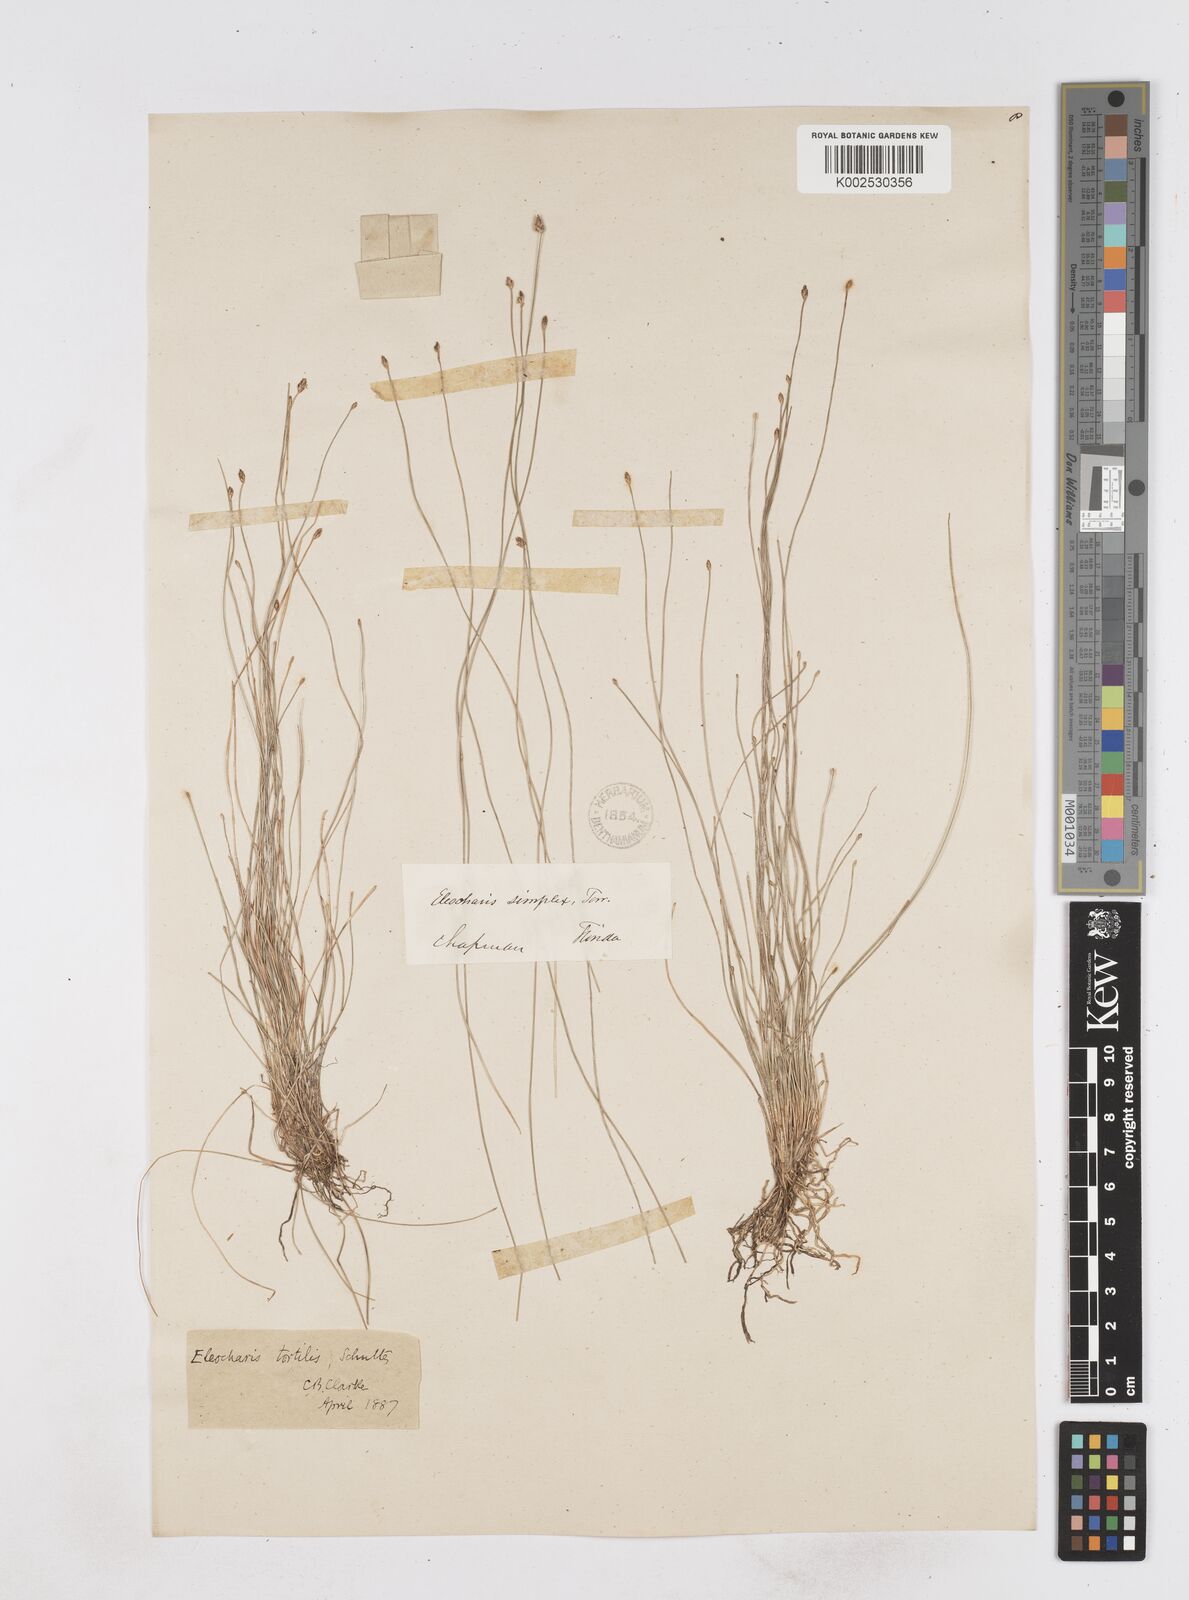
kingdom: Plantae
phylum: Tracheophyta
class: Liliopsida
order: Poales
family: Cyperaceae
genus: Eleocharis
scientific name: Eleocharis tortilis
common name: Twisted spike sedge
